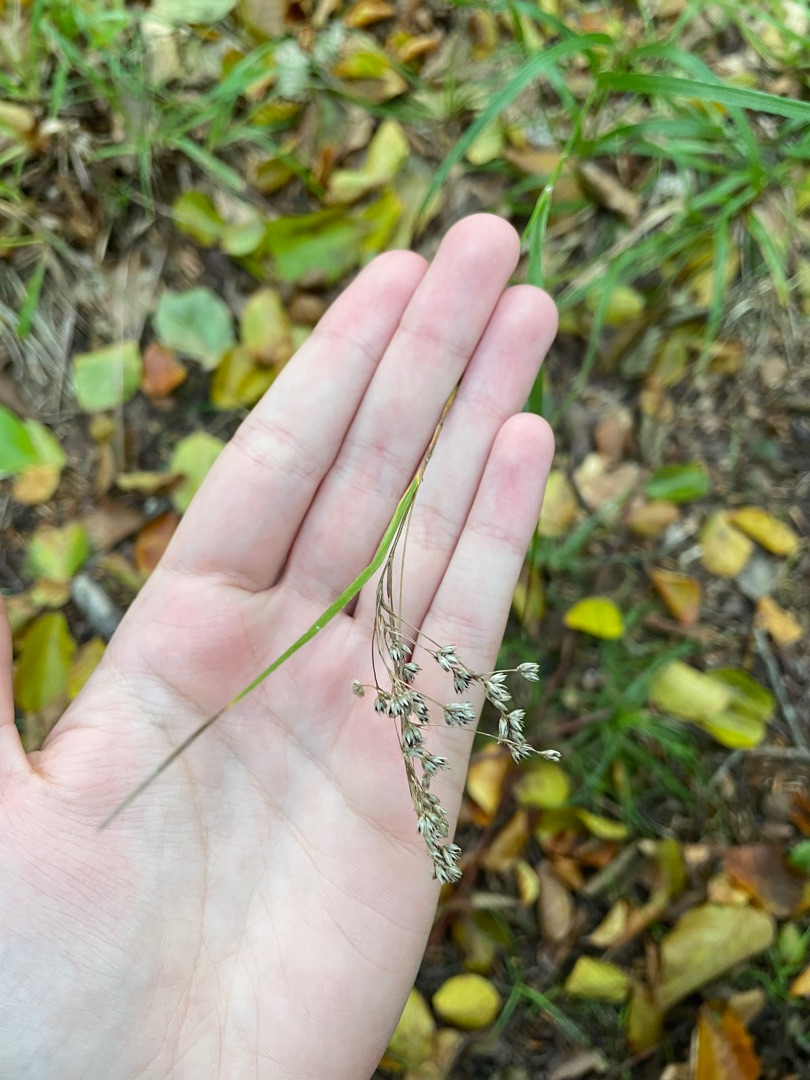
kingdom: Plantae
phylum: Tracheophyta
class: Liliopsida
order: Poales
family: Juncaceae
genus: Luzula
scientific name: Luzula luzuloides
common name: Bleg frytle
